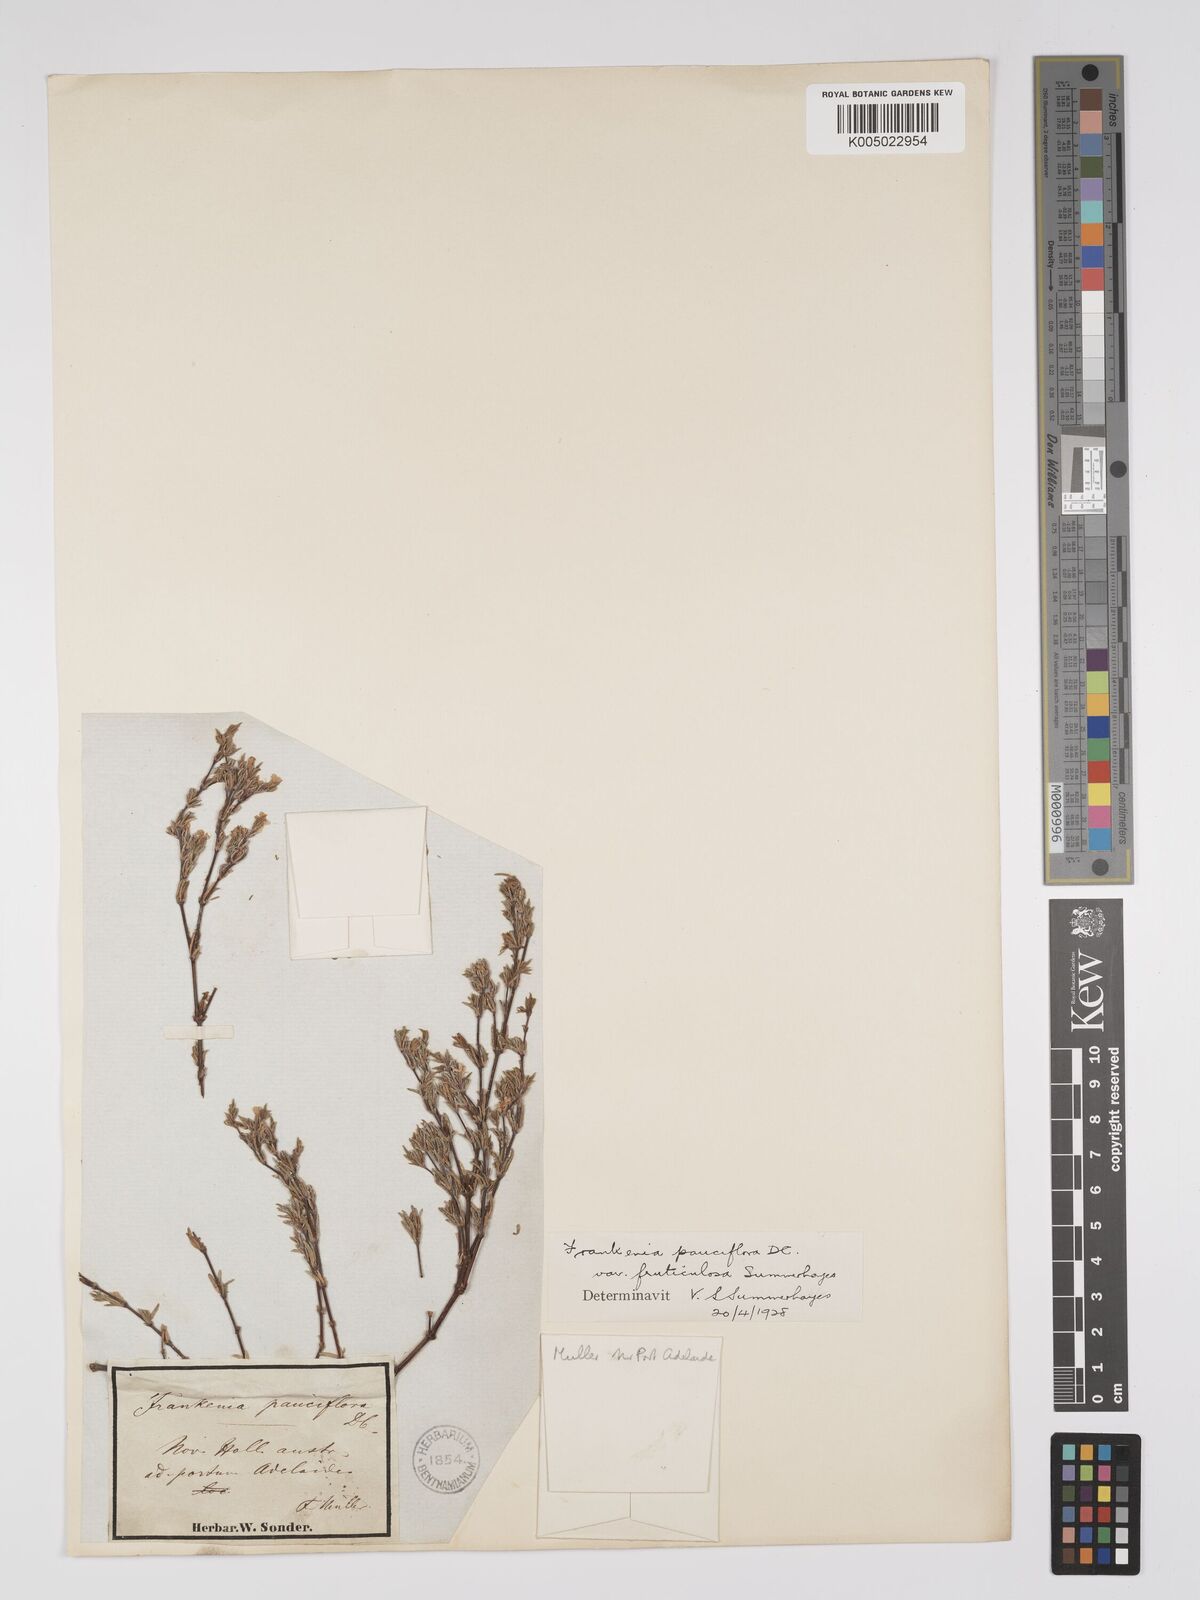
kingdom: Plantae
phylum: Tracheophyta
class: Magnoliopsida
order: Caryophyllales
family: Frankeniaceae
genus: Frankenia
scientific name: Frankenia pauciflora
